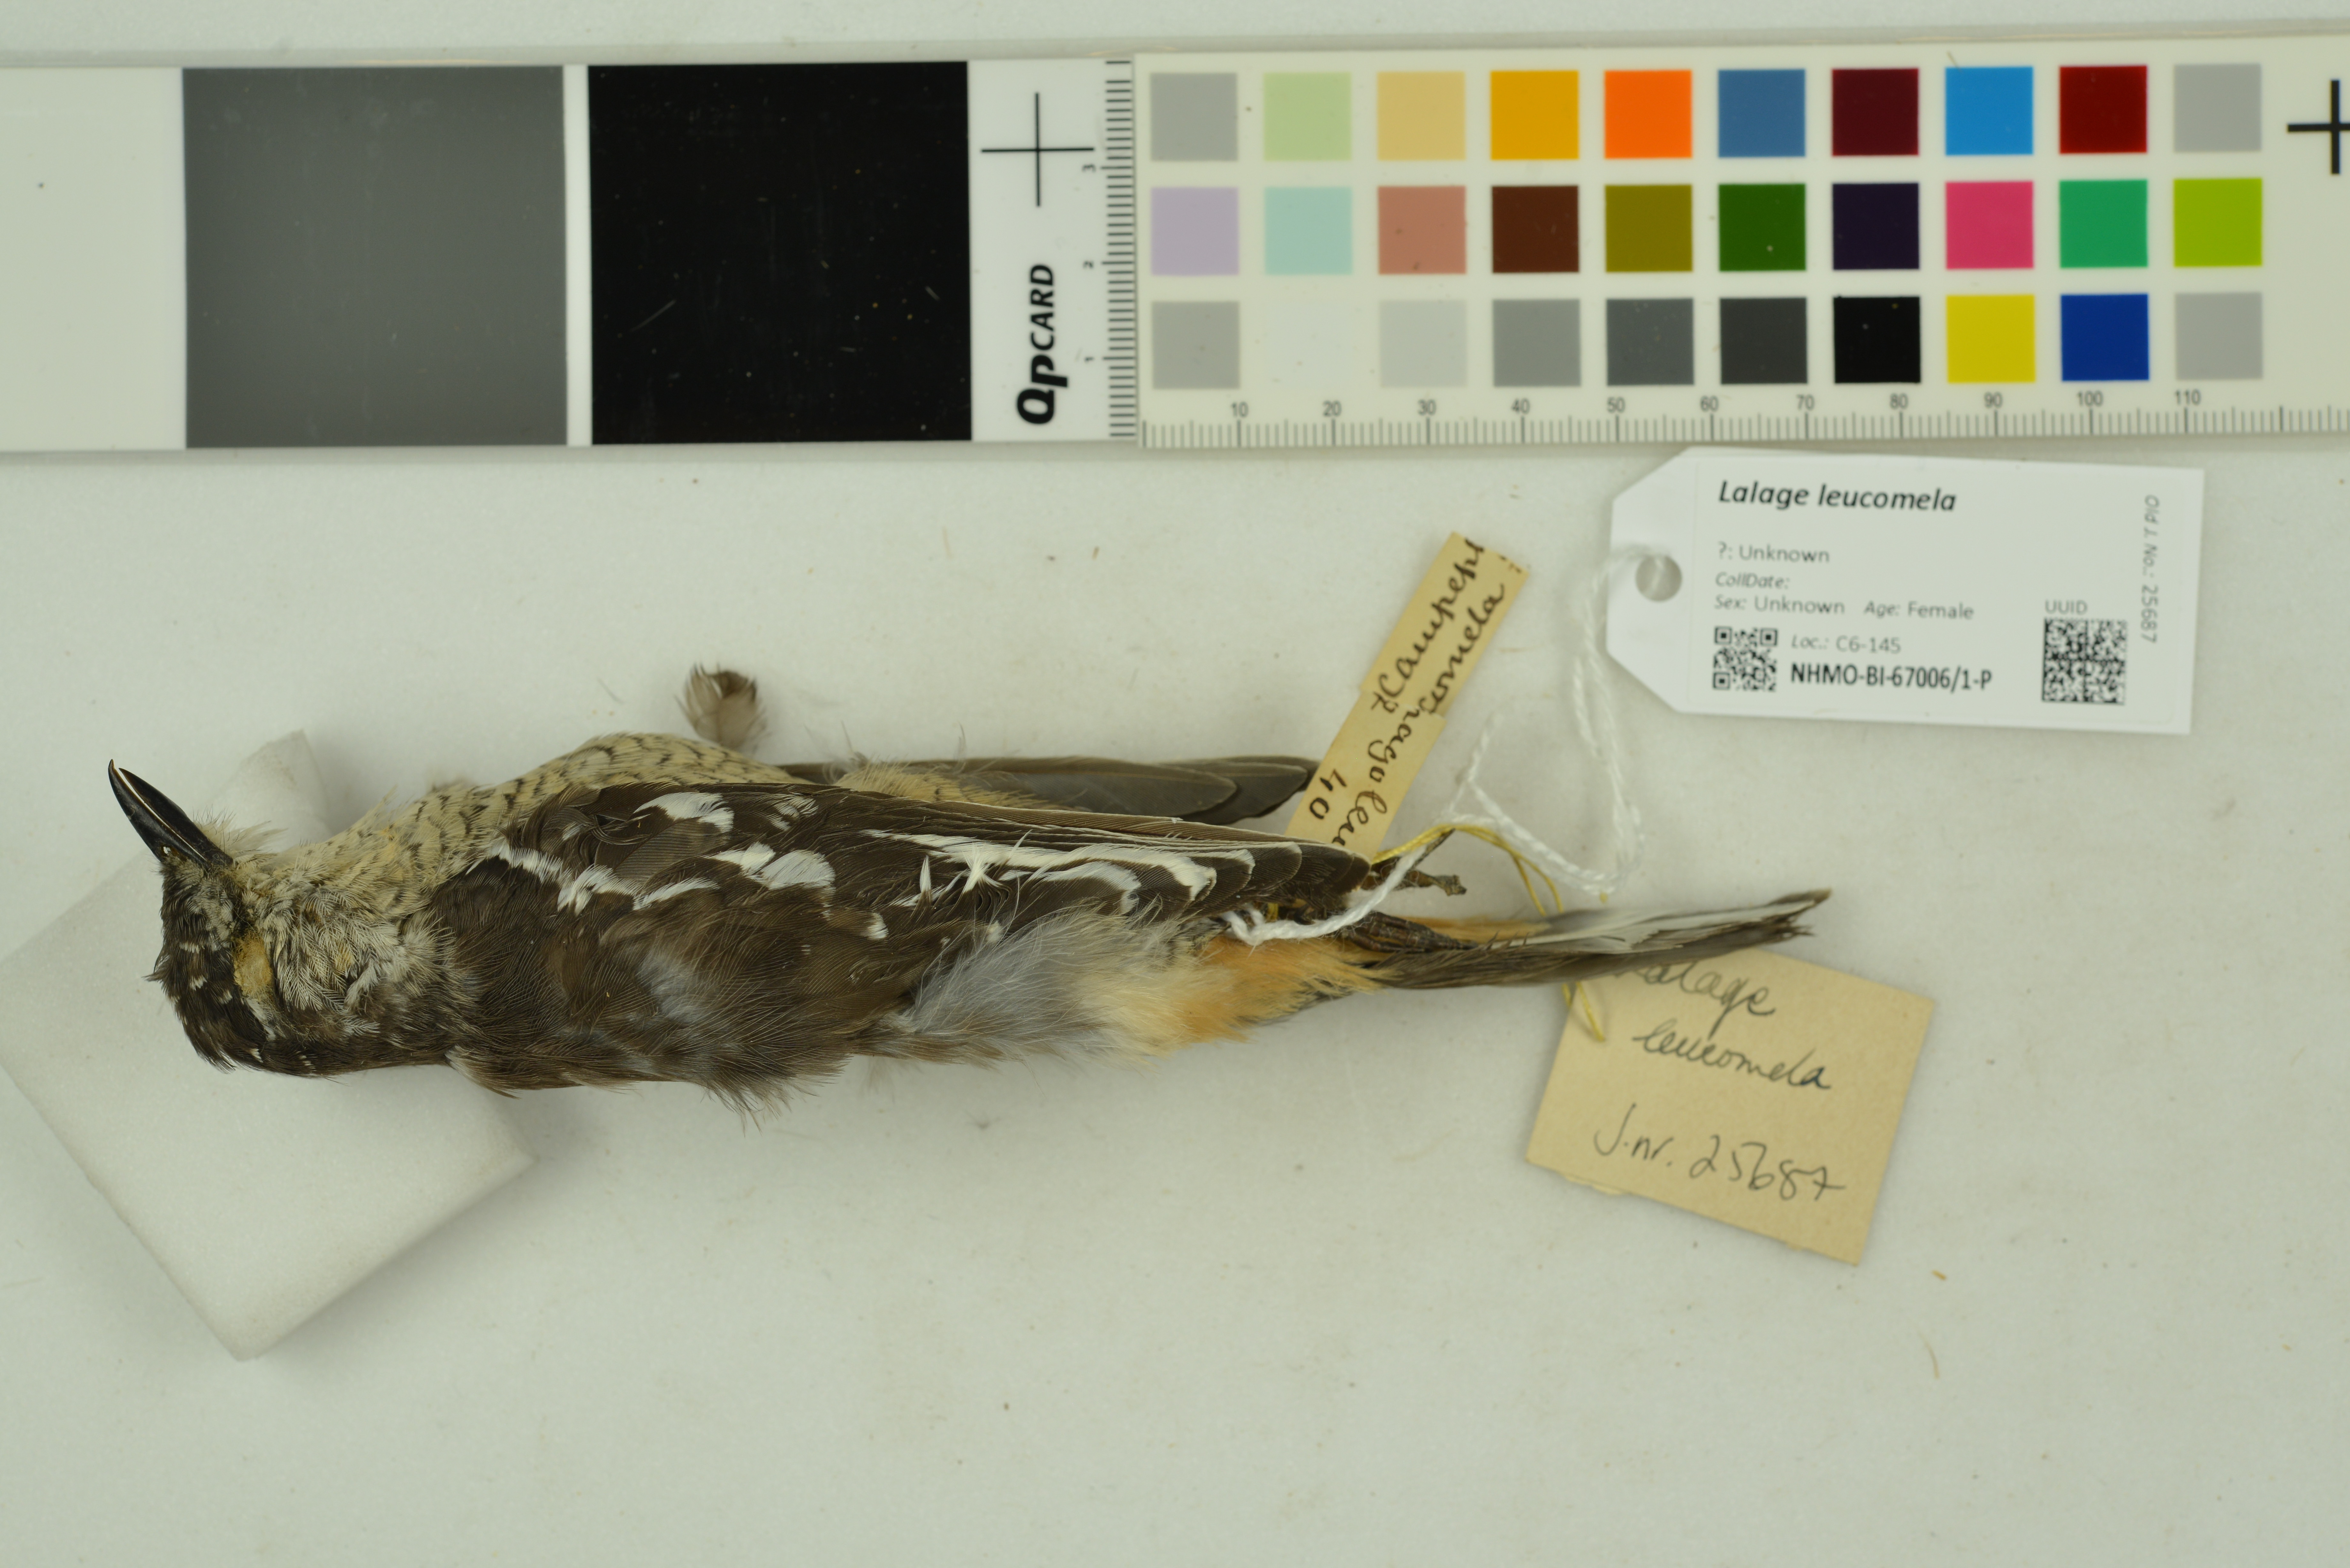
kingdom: Animalia
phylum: Chordata
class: Aves
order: Passeriformes
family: Campephagidae
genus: Lalage
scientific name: Lalage leucomela
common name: Varied triller
